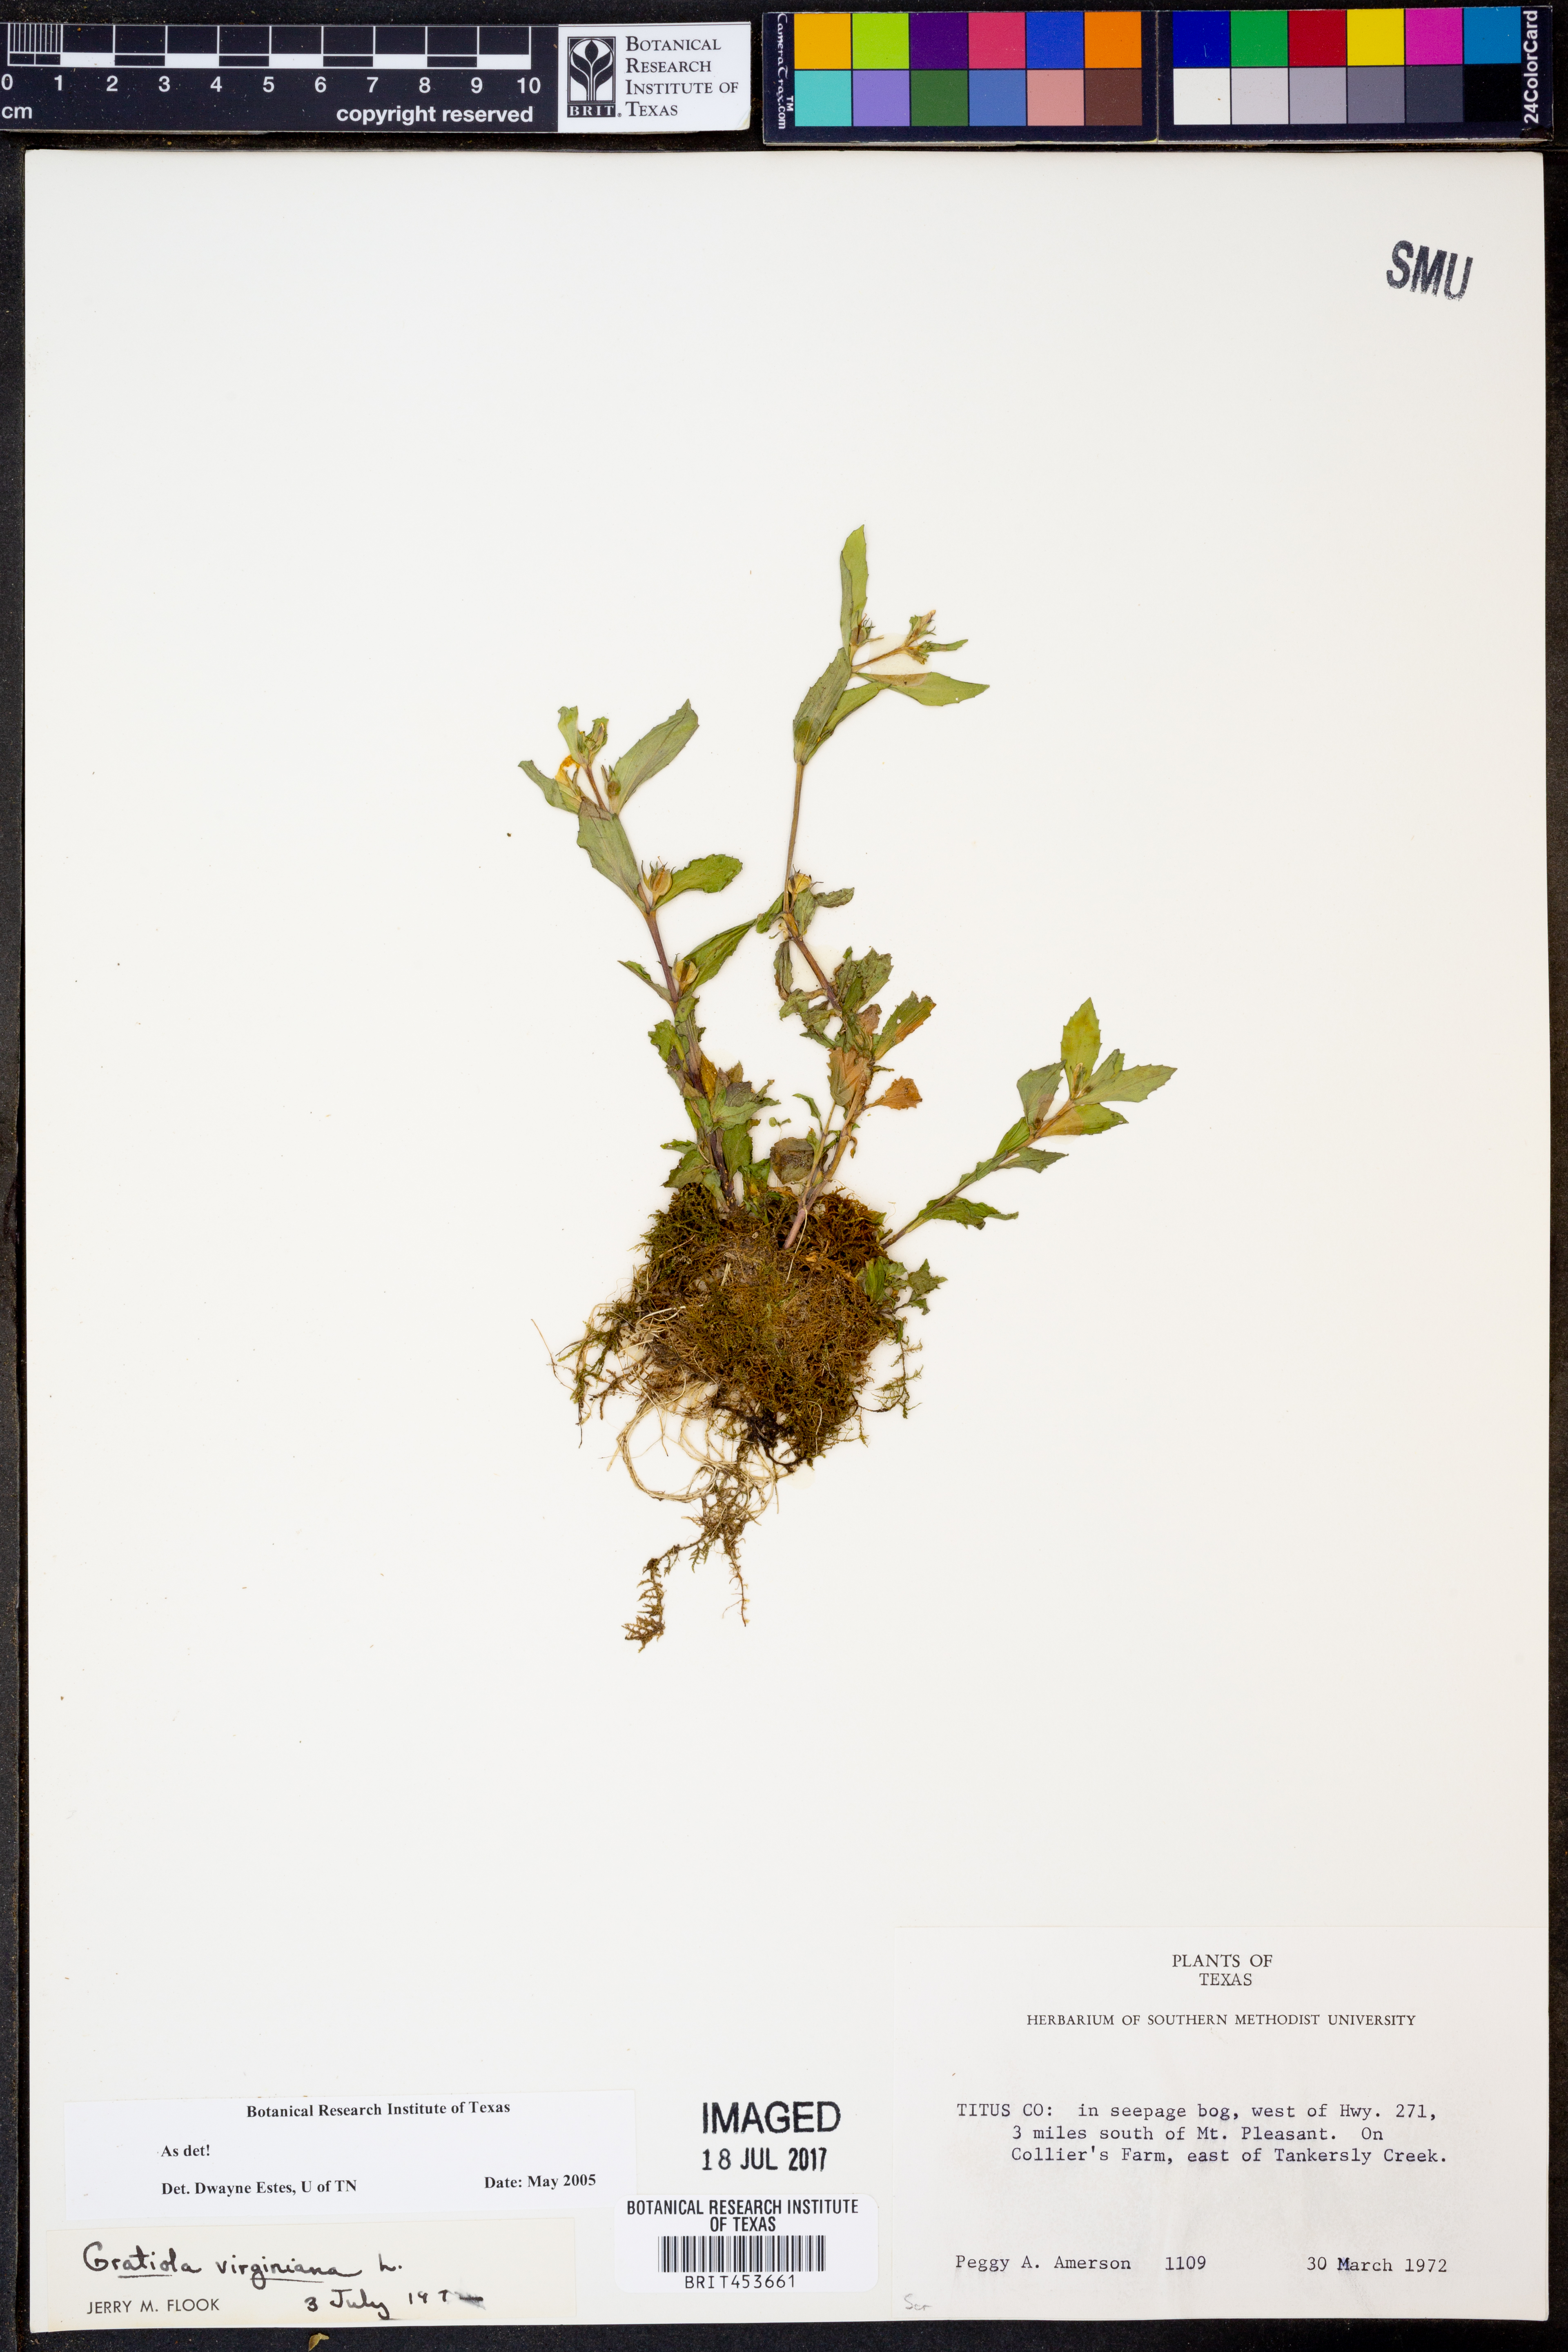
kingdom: Plantae
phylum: Tracheophyta
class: Magnoliopsida
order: Lamiales
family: Plantaginaceae
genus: Gratiola
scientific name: Gratiola virginiana
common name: Roundfruit hedgehyssop
